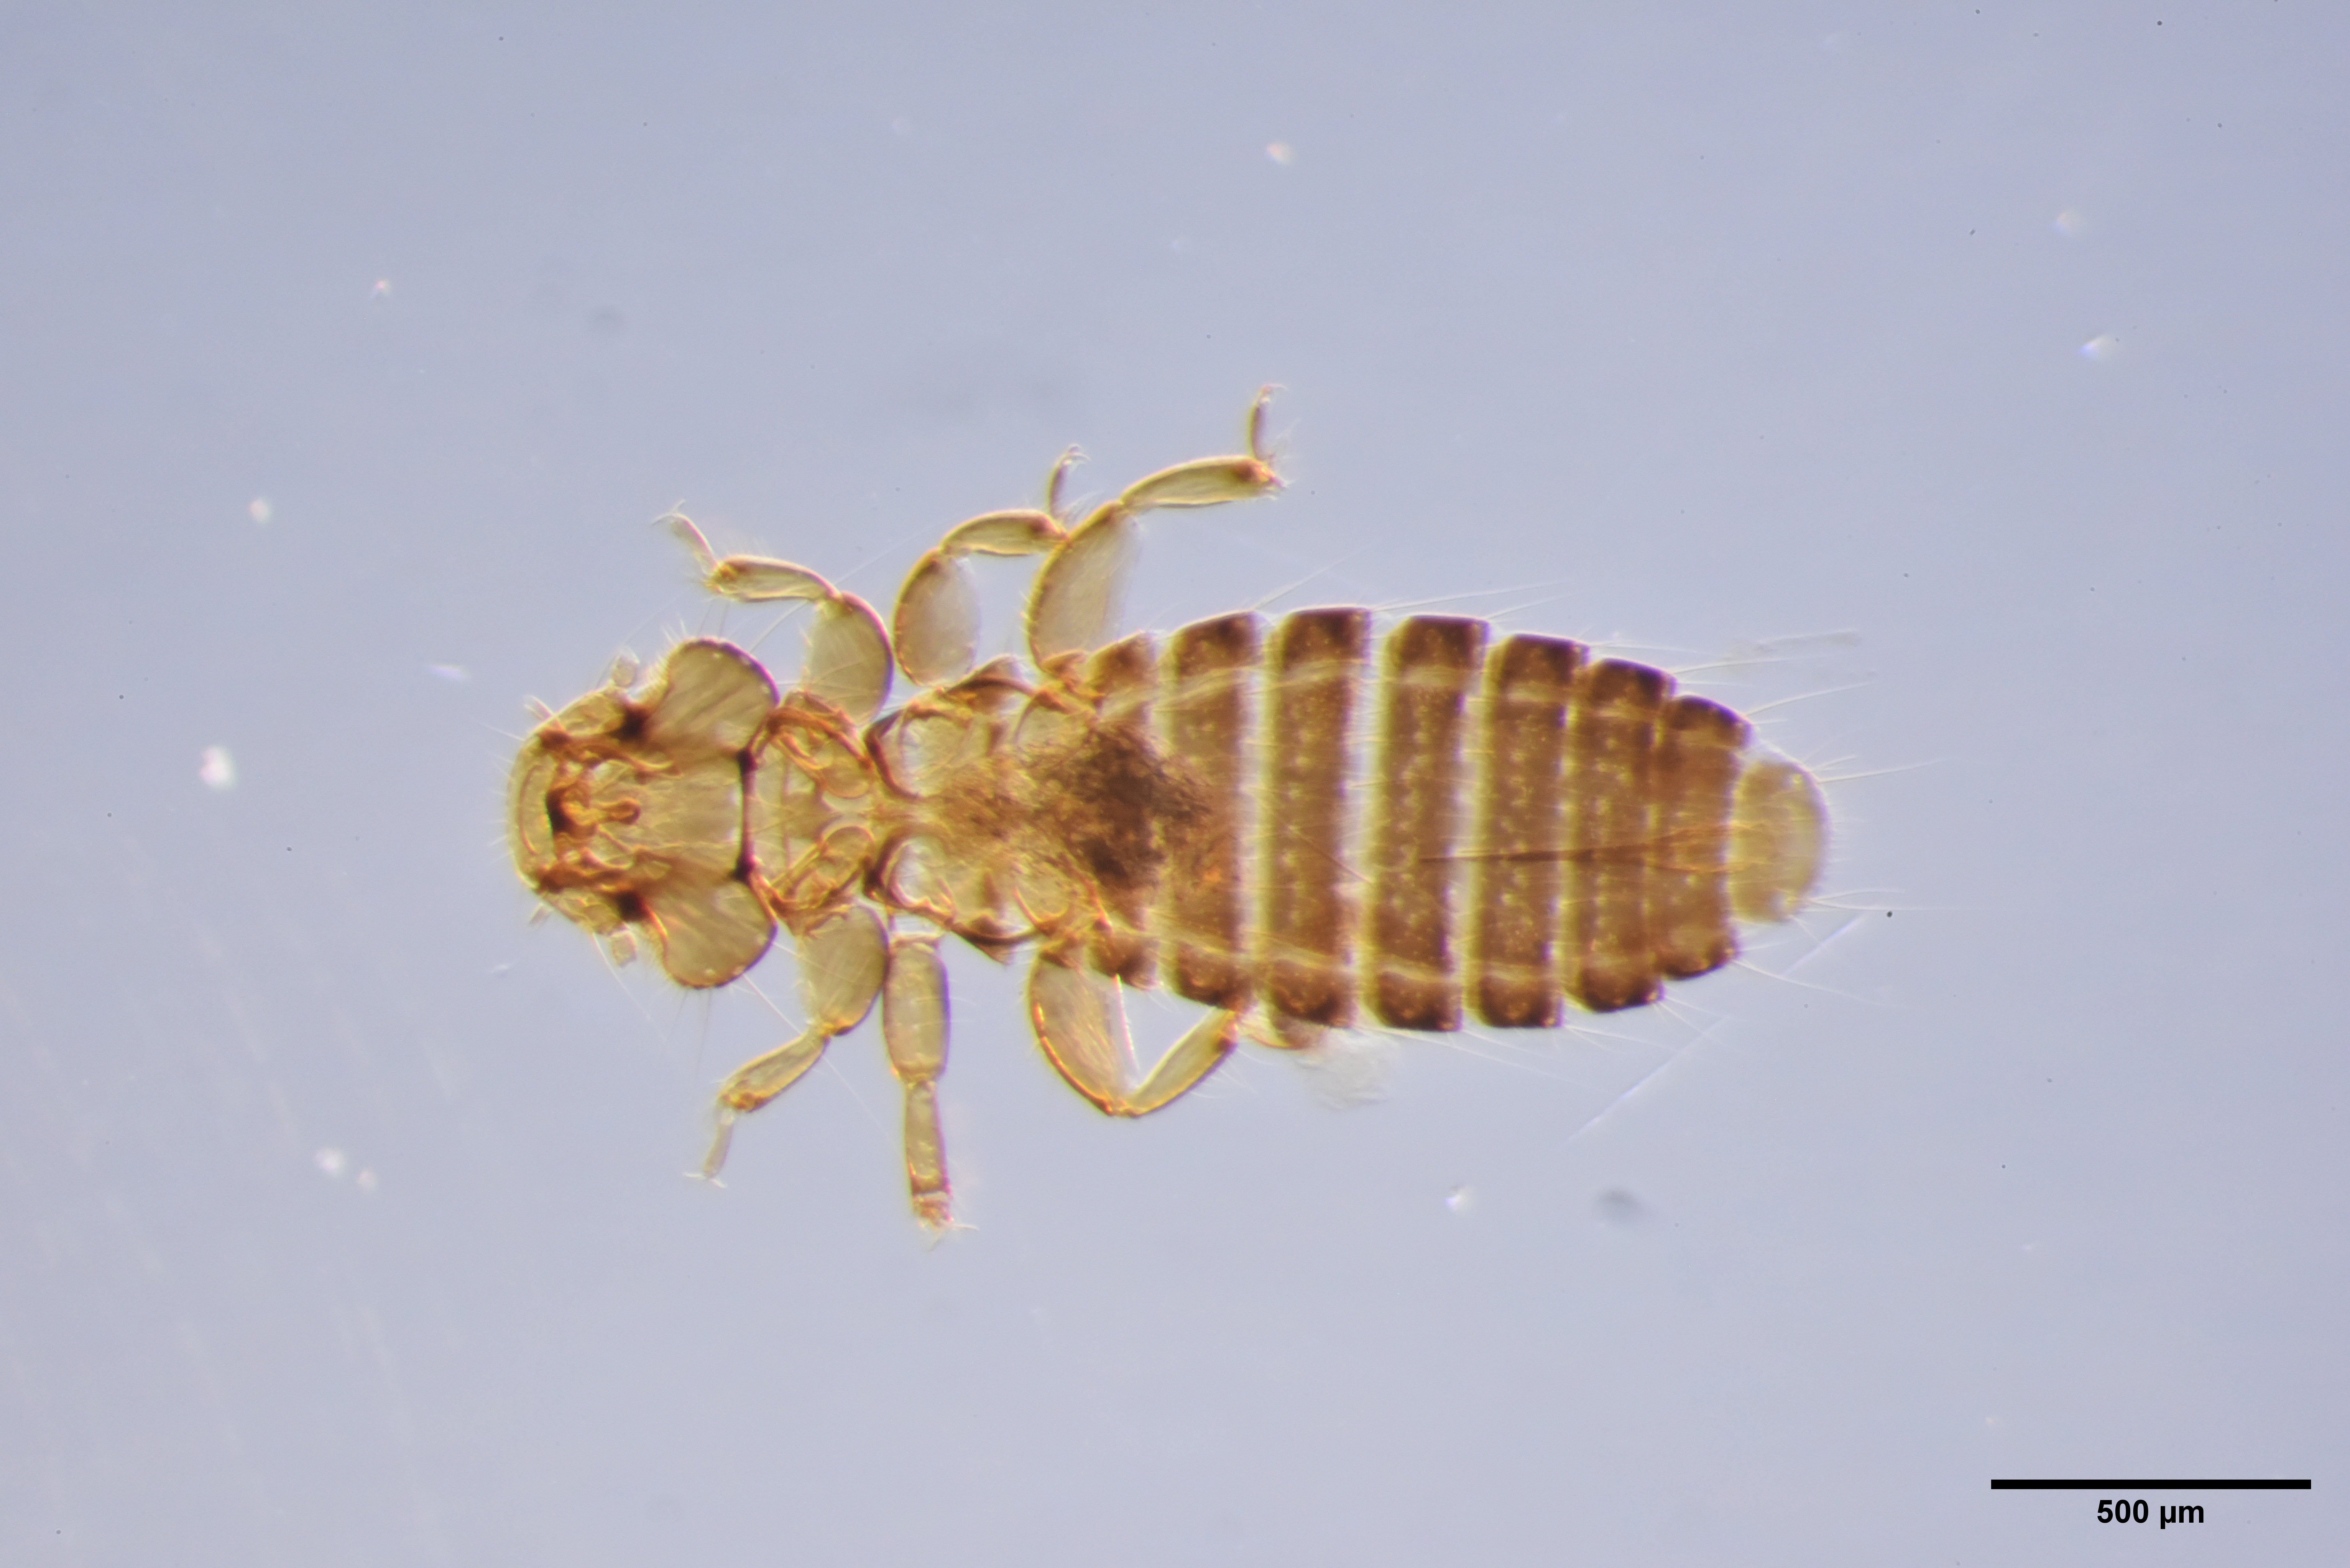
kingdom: Animalia
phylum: Arthropoda
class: Insecta
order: Psocodea
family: Ancistronidae
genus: Actornithophilus
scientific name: Actornithophilus limosae
